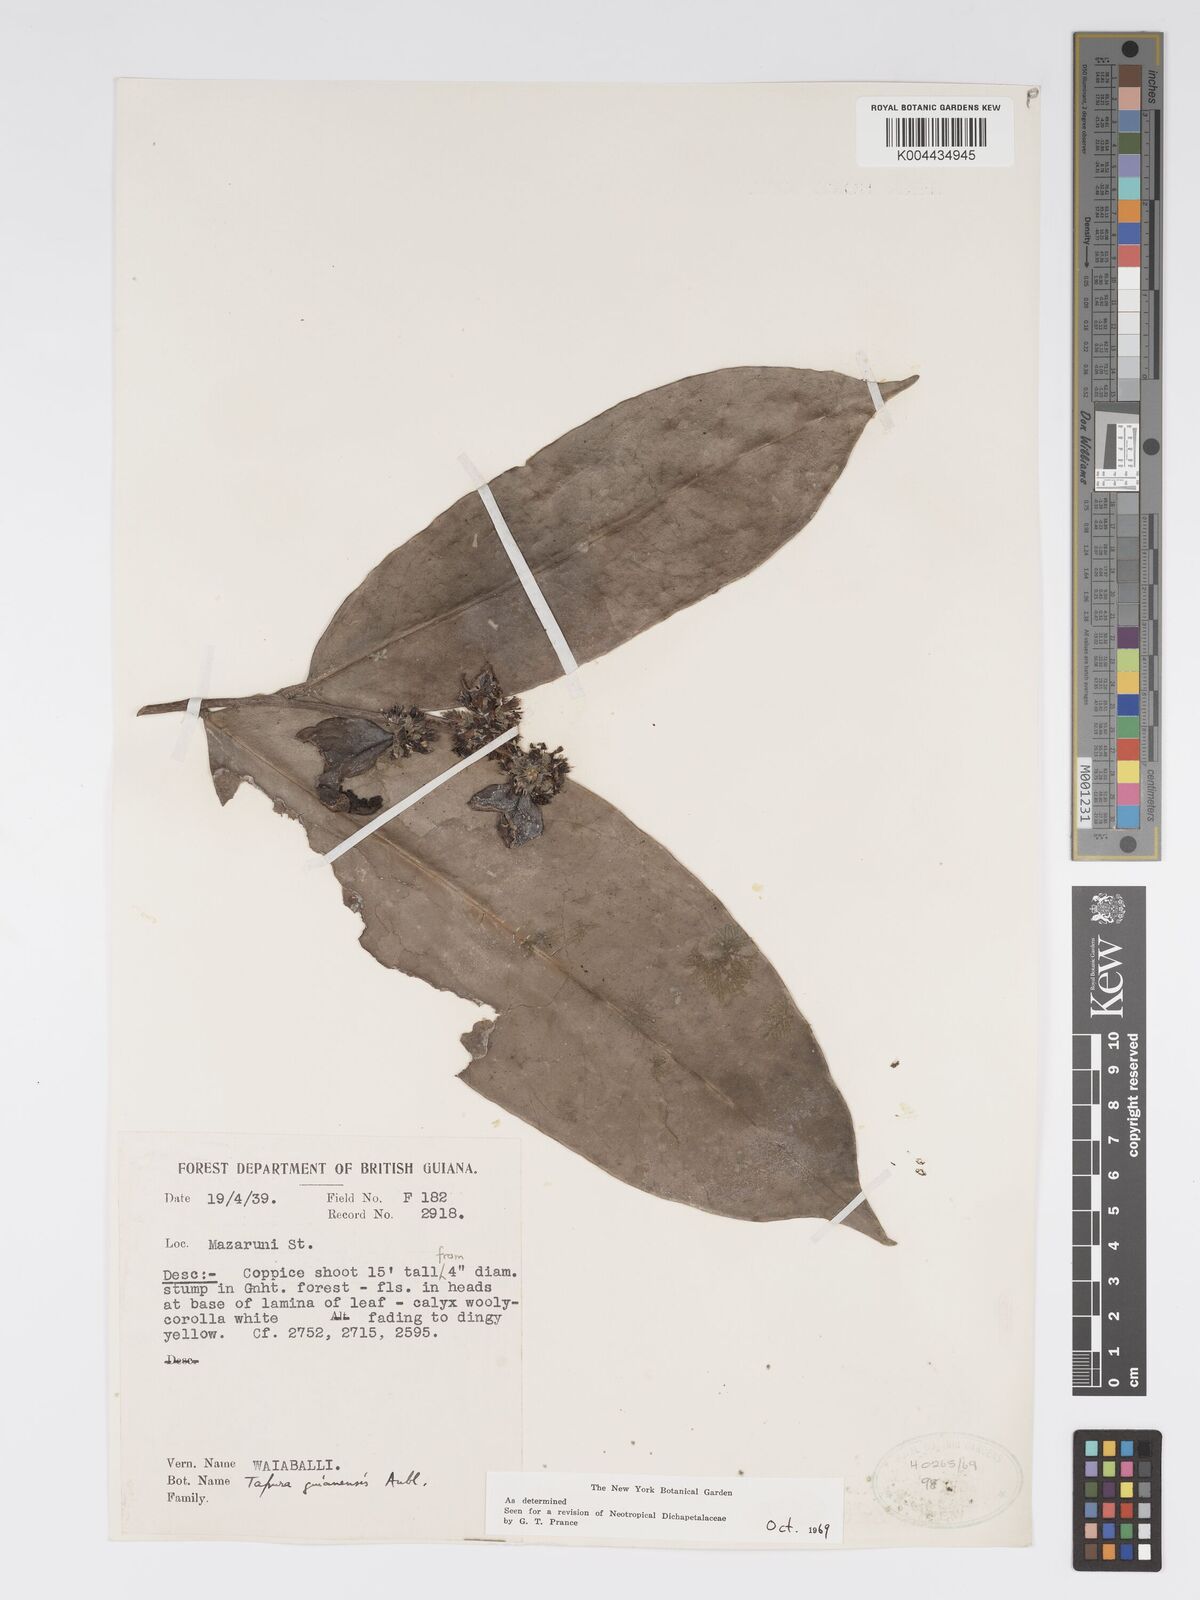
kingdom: Plantae
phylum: Tracheophyta
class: Magnoliopsida
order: Malpighiales
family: Dichapetalaceae
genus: Tapura
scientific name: Tapura guianensis
